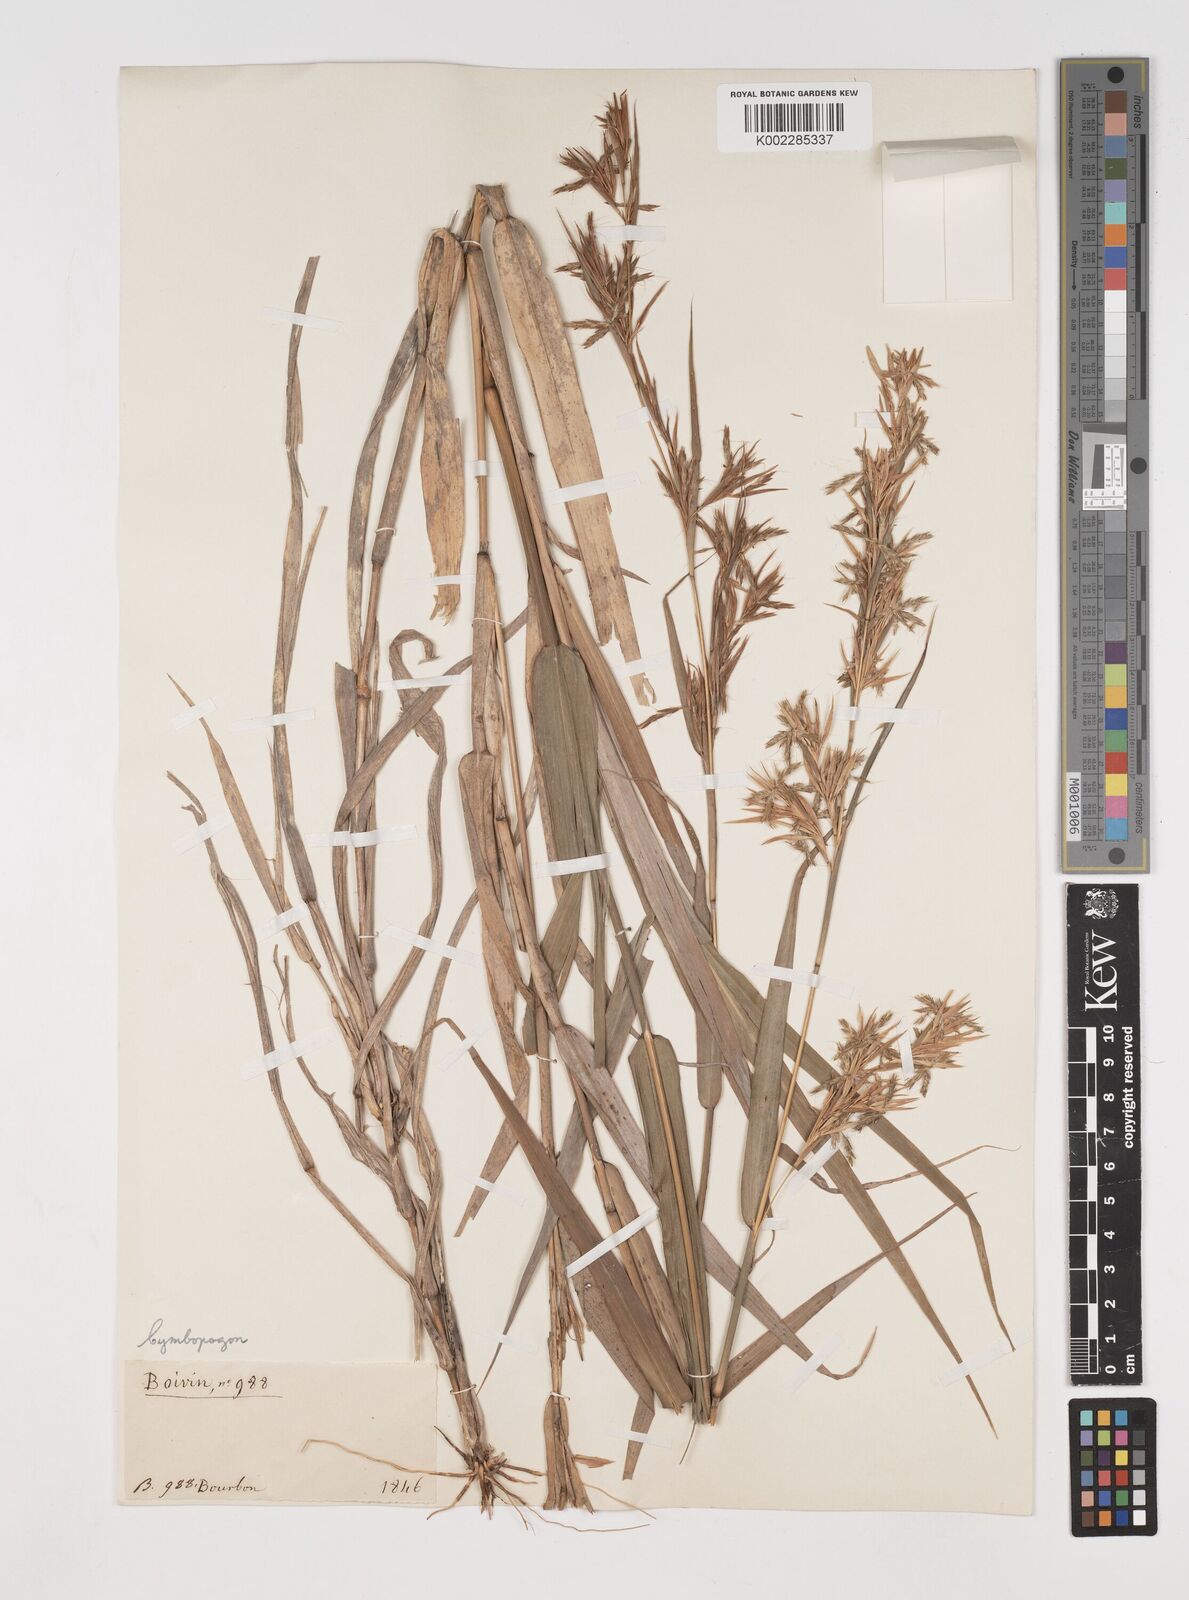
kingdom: Plantae
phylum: Tracheophyta
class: Liliopsida
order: Poales
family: Poaceae
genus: Cymbopogon
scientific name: Cymbopogon pruinosus
